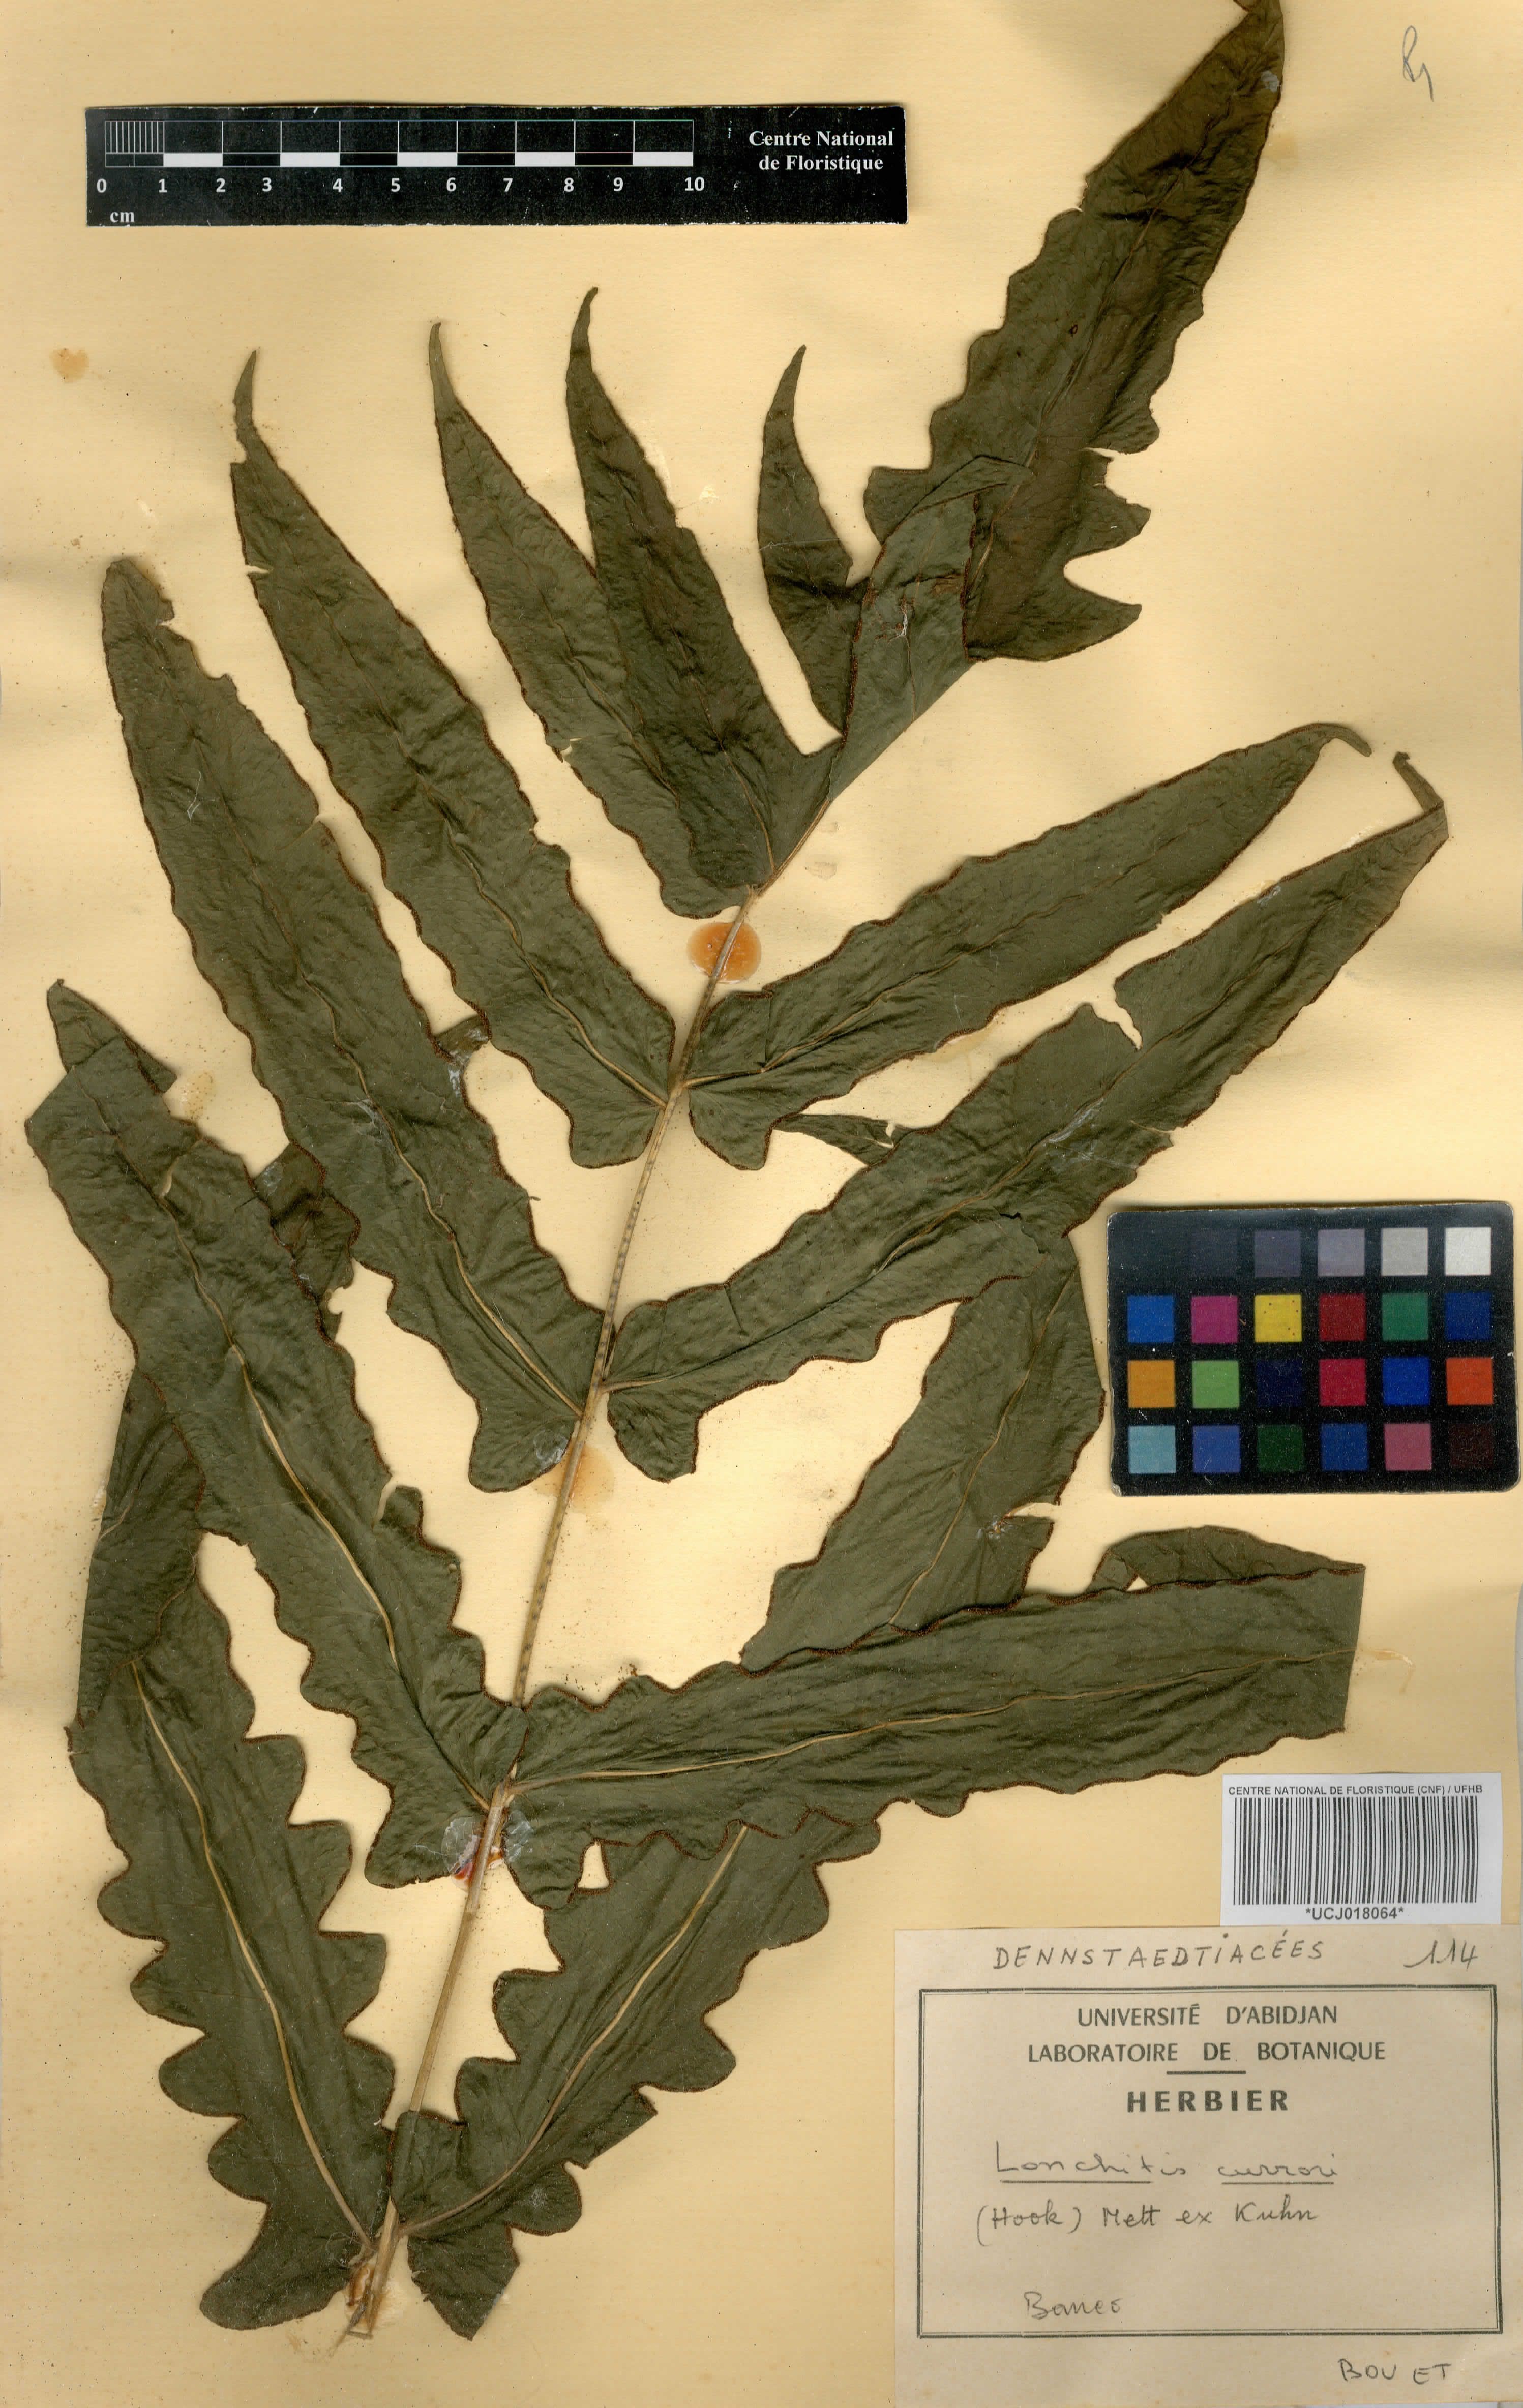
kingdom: Plantae
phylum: Tracheophyta
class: Polypodiopsida
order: Polypodiales
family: Dennstaedtiaceae
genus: Blotiella
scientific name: Blotiella currorii
